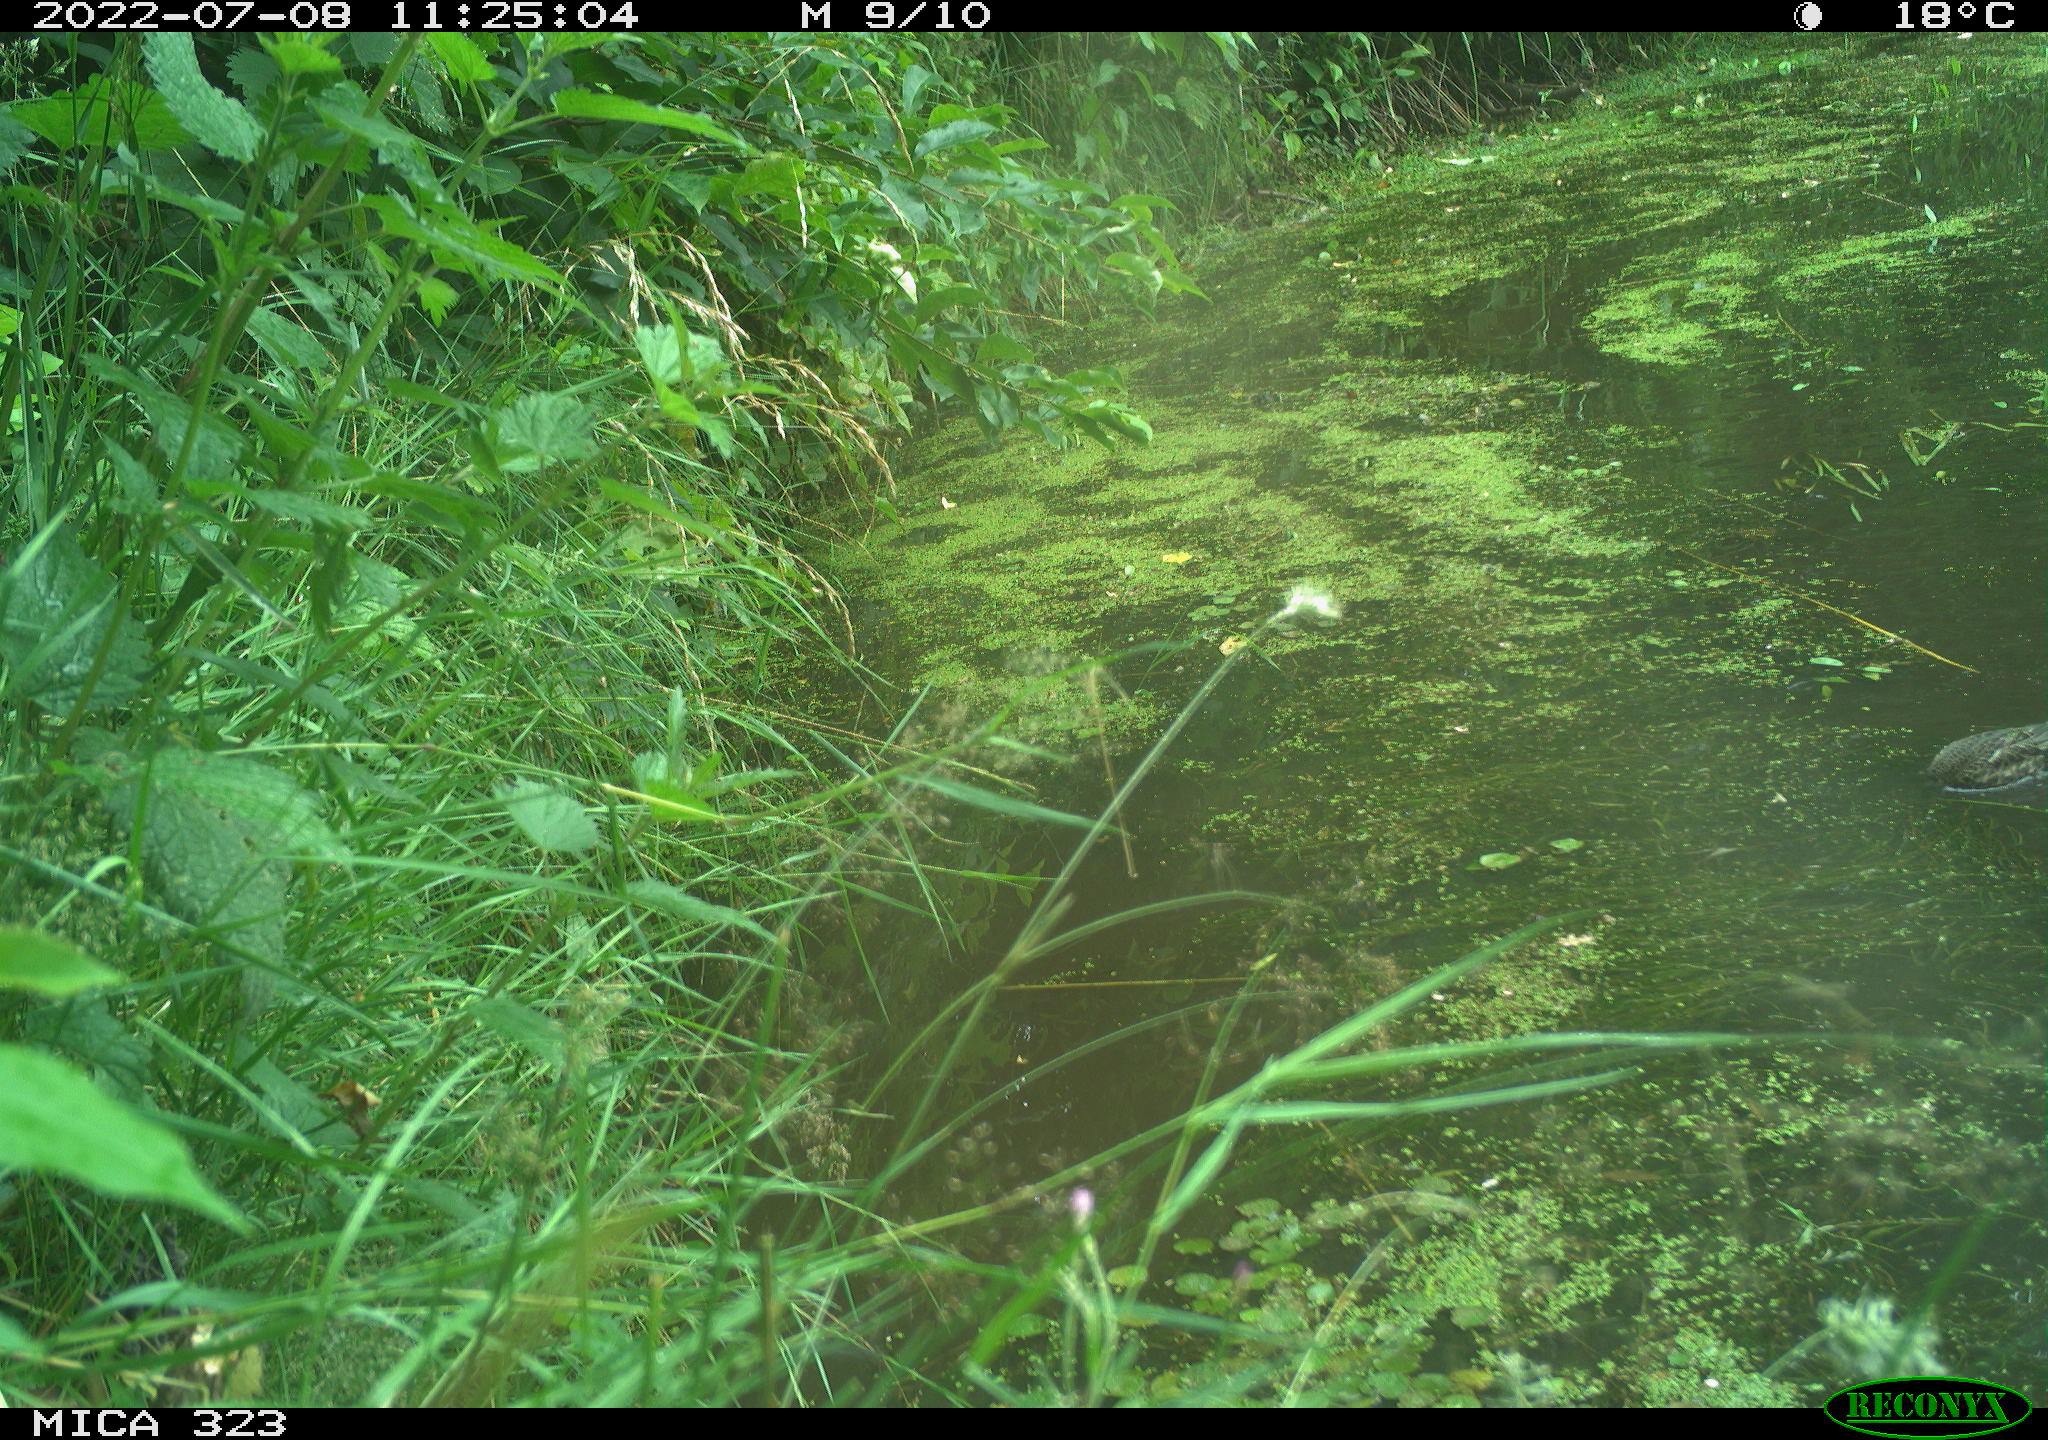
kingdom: Animalia
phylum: Chordata
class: Aves
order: Anseriformes
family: Anatidae
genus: Anas
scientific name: Anas platyrhynchos
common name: Mallard
